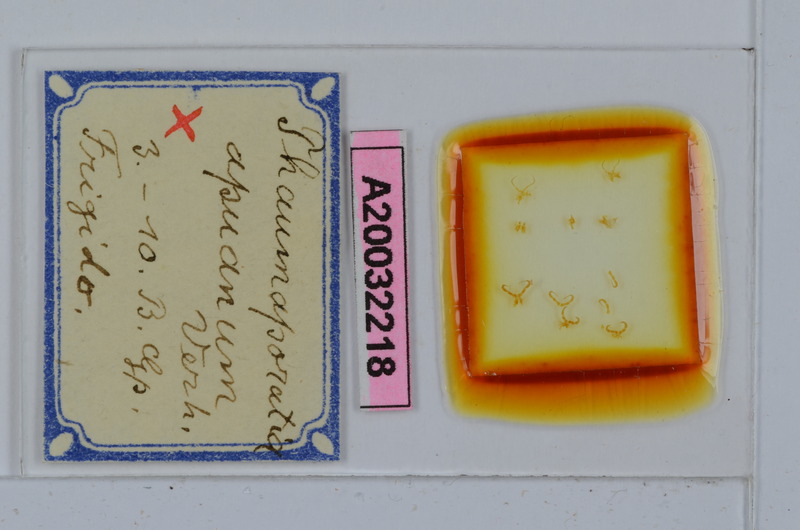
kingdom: Animalia
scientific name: Animalia
